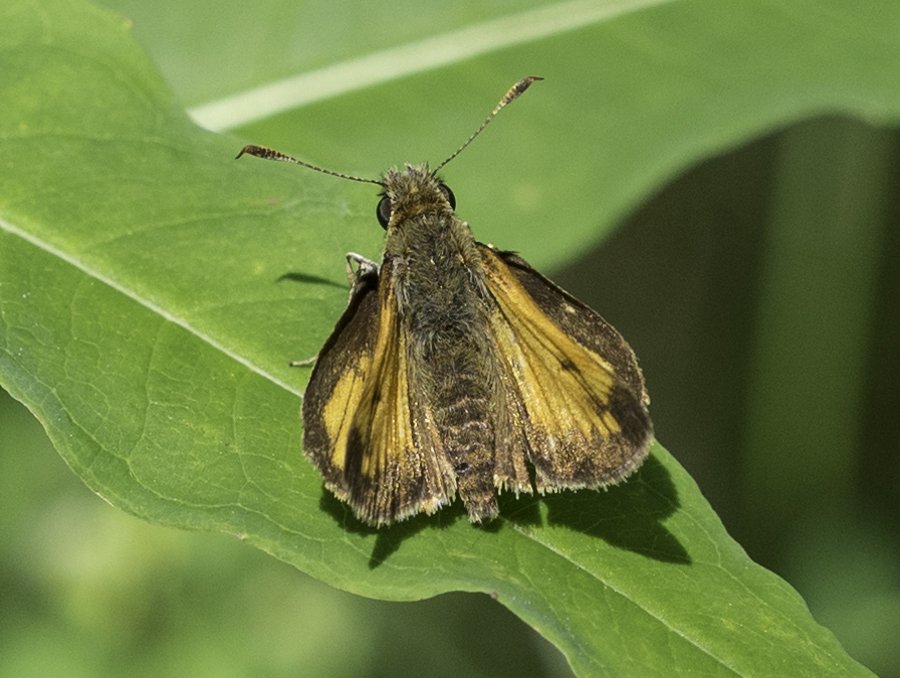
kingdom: Animalia
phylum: Arthropoda
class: Insecta
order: Lepidoptera
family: Hesperiidae
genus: Lon
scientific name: Lon hobomok
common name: Hobomok Skipper
